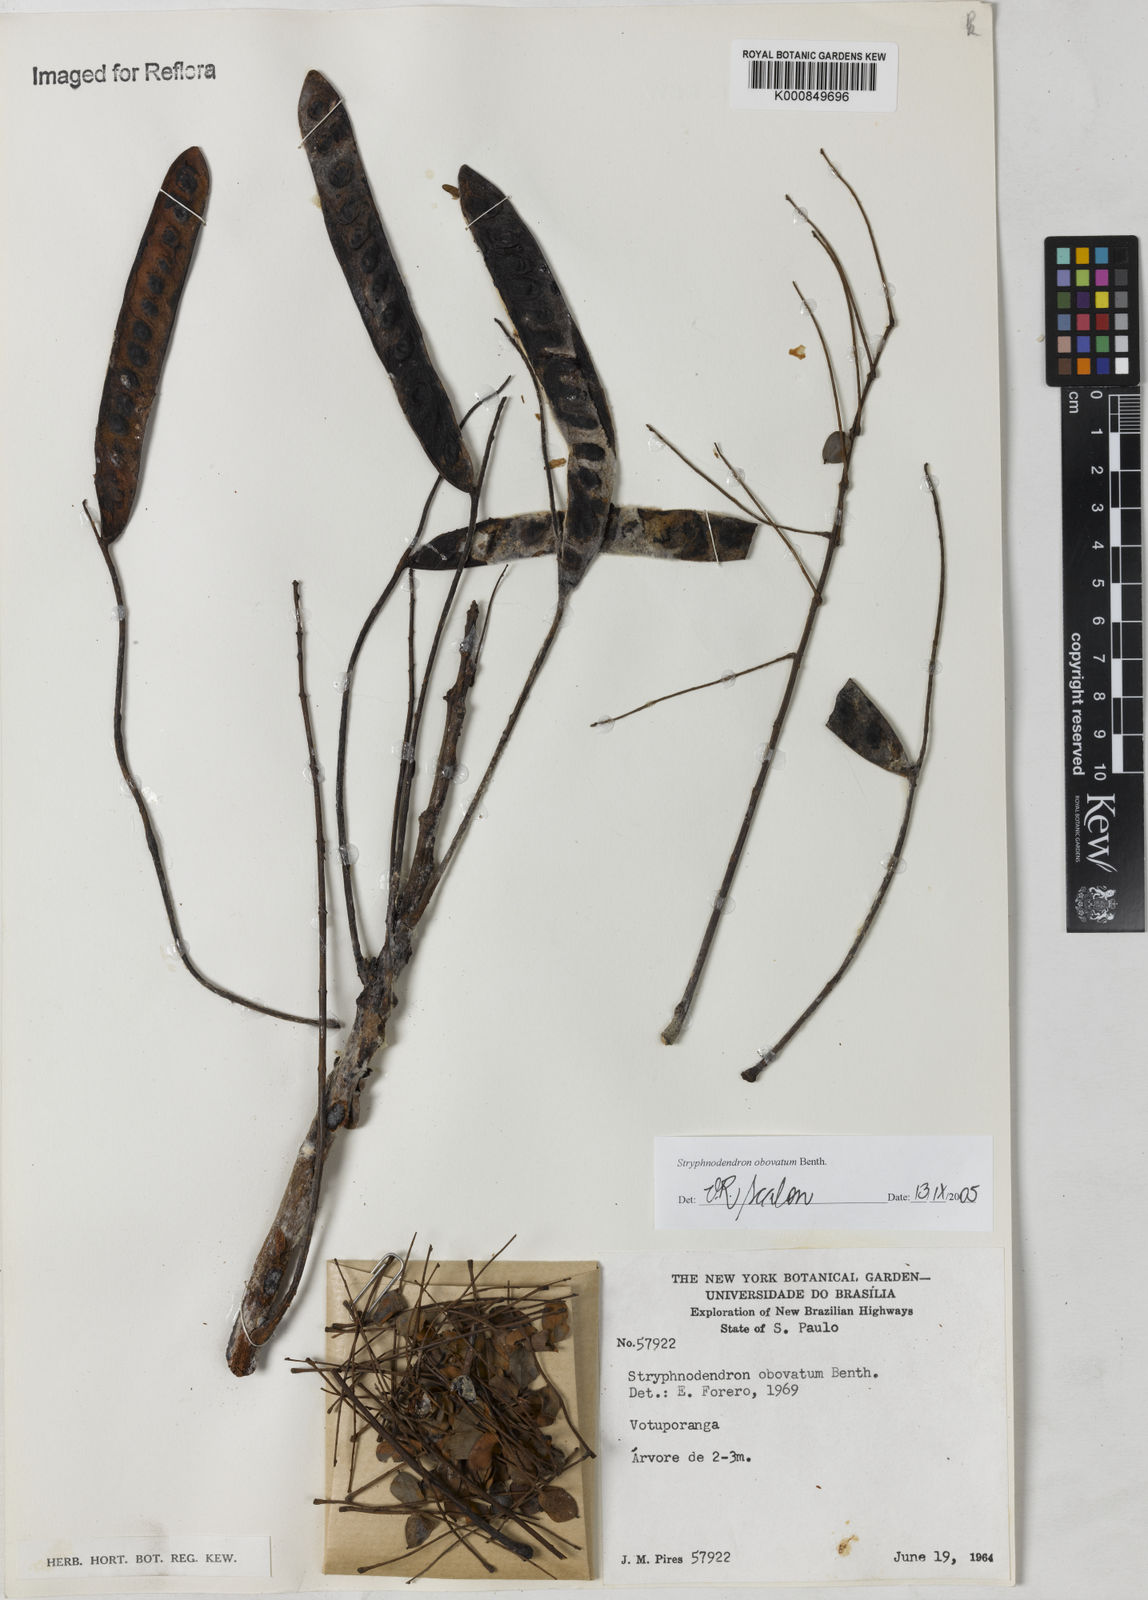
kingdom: Plantae
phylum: Tracheophyta
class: Magnoliopsida
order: Fabales
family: Fabaceae
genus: Stryphnodendron
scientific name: Stryphnodendron rotundifolium
